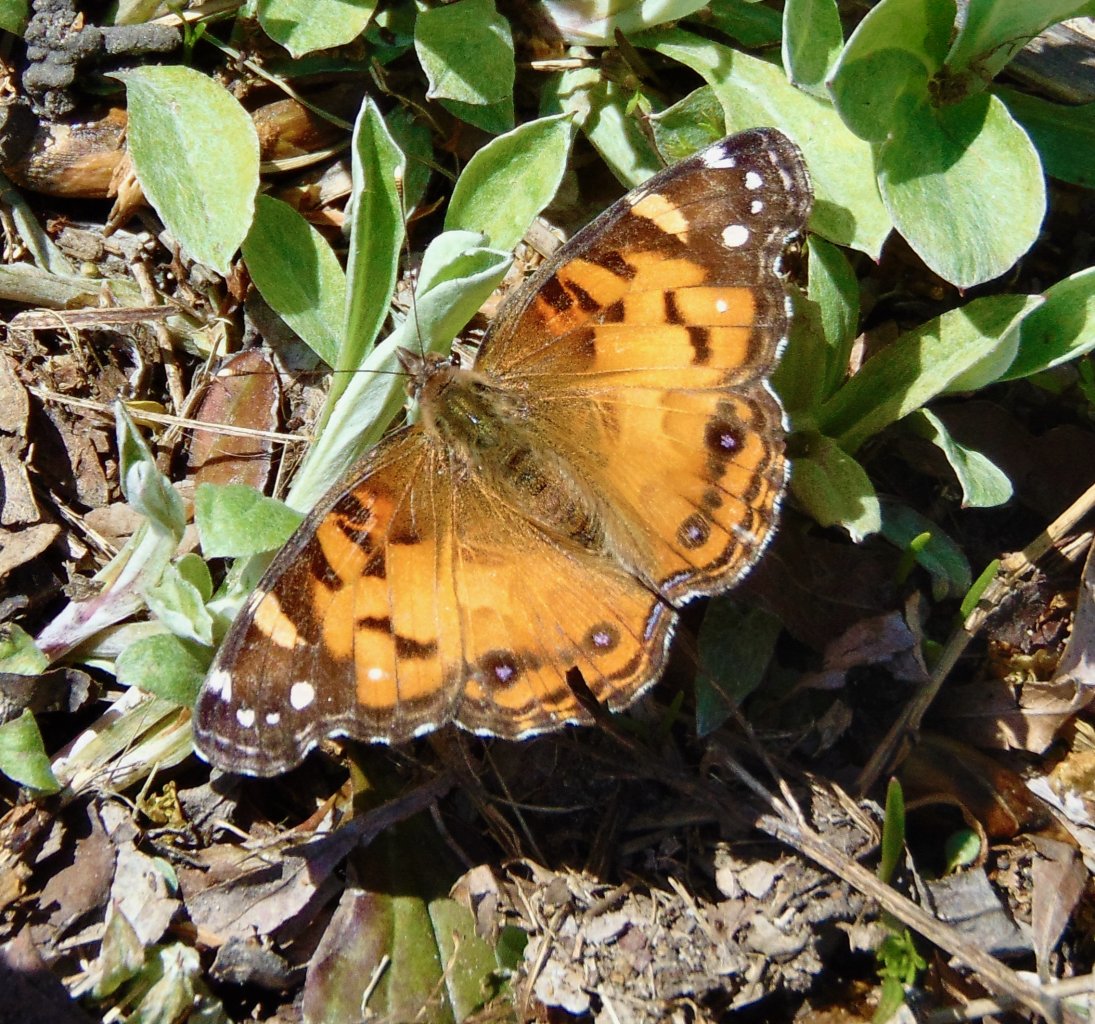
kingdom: Animalia
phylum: Arthropoda
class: Insecta
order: Lepidoptera
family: Nymphalidae
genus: Vanessa
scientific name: Vanessa virginiensis
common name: American Lady
